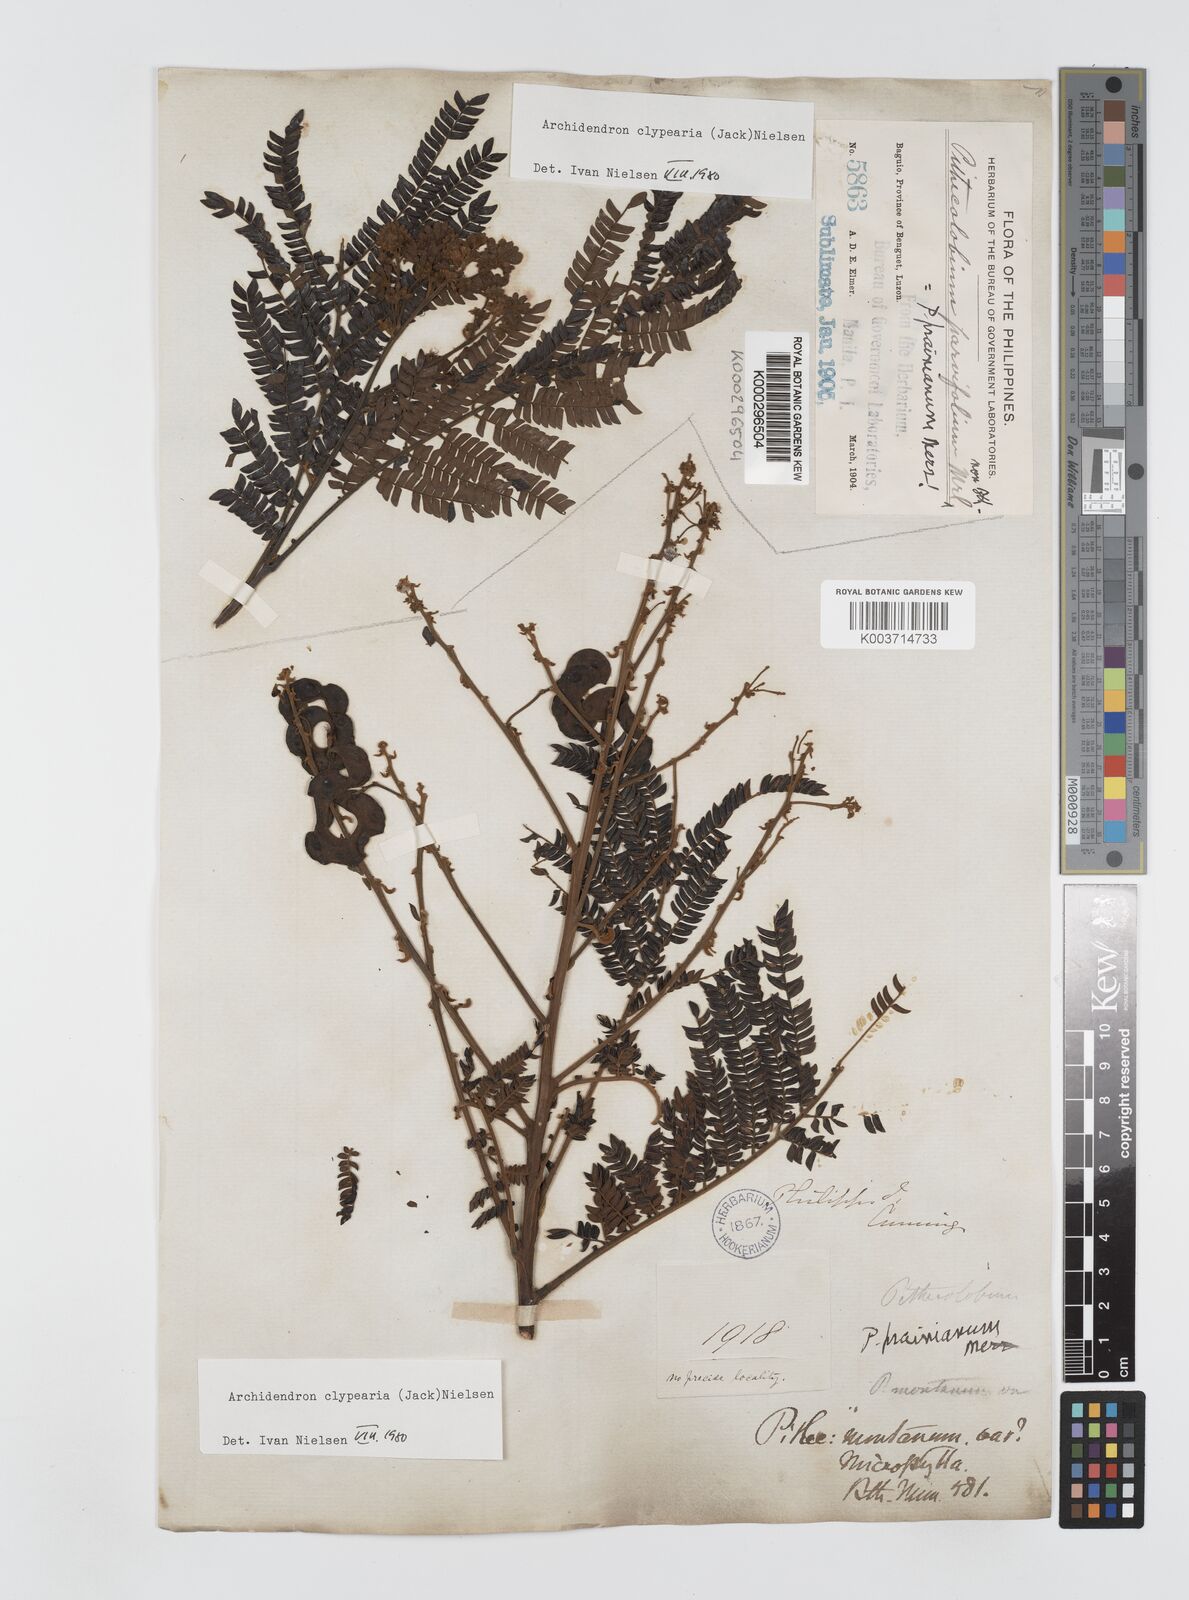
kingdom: Plantae
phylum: Tracheophyta
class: Magnoliopsida
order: Fabales
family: Fabaceae
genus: Archidendron
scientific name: Archidendron clypearia
